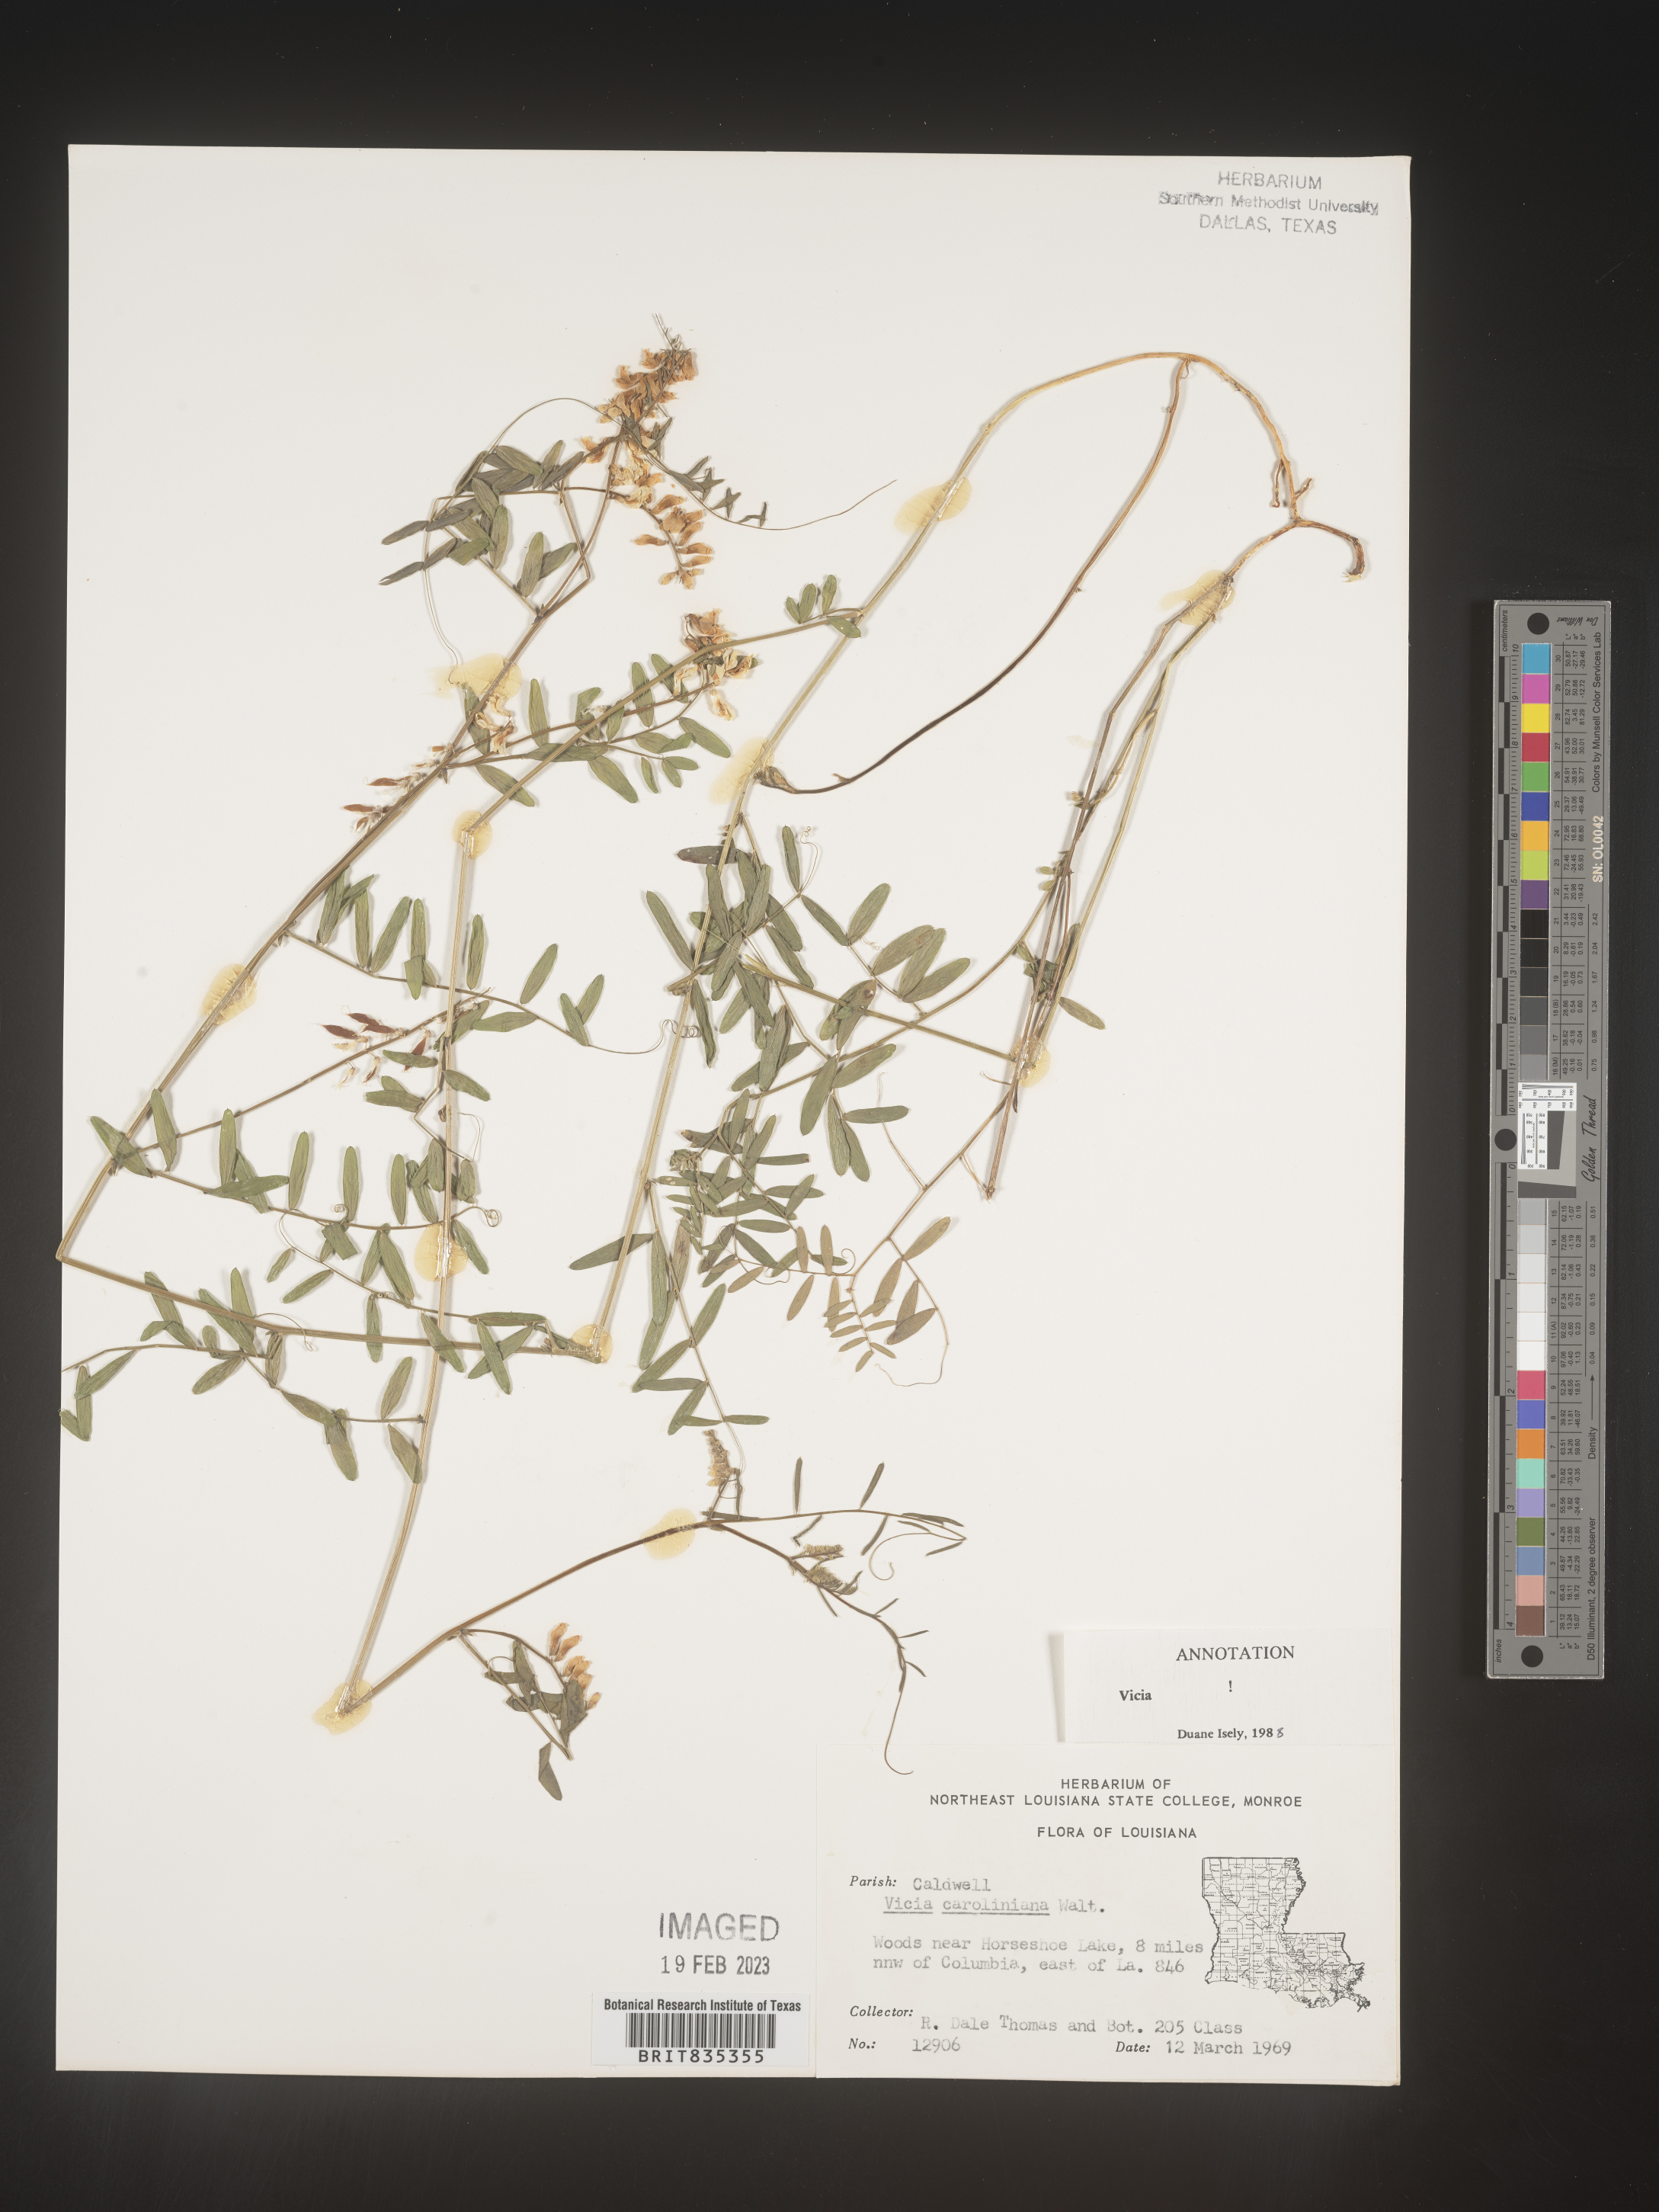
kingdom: Plantae
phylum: Tracheophyta
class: Magnoliopsida
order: Fabales
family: Fabaceae
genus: Vicia
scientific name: Vicia caroliniana
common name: Carolina vetch
